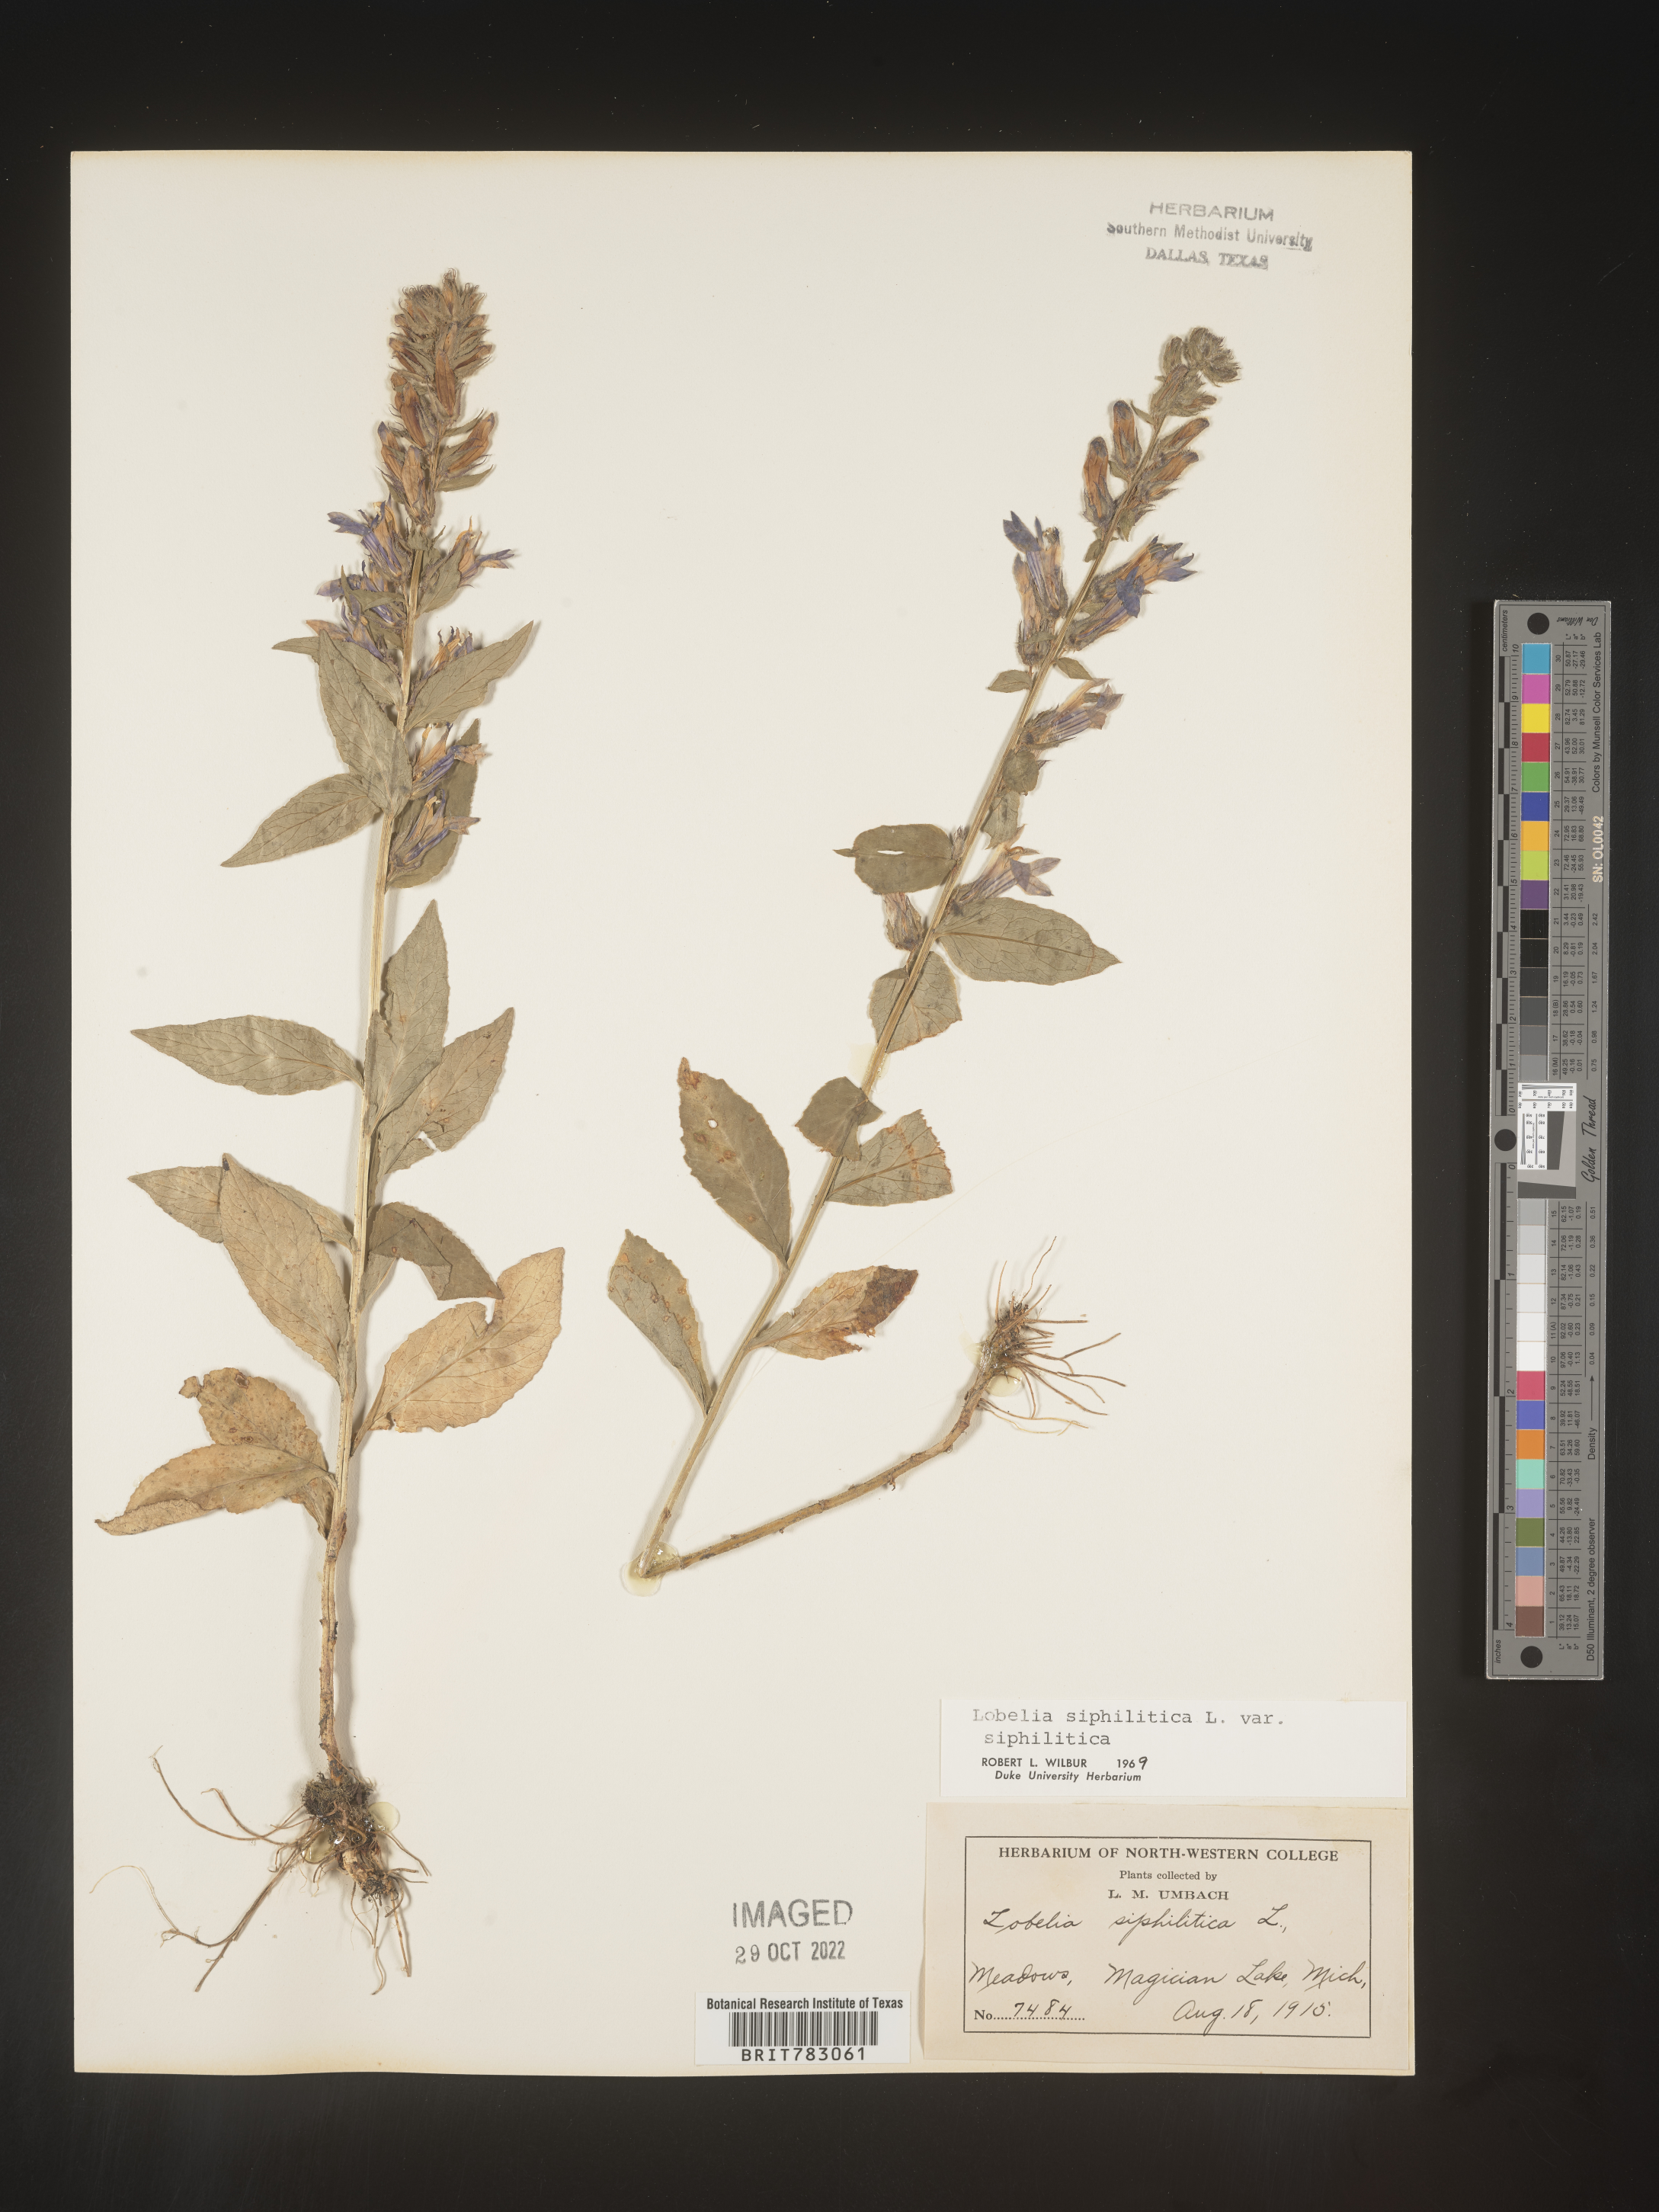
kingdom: Plantae
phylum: Tracheophyta
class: Magnoliopsida
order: Asterales
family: Campanulaceae
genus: Lobelia
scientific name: Lobelia siphilitica
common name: Great lobelia
